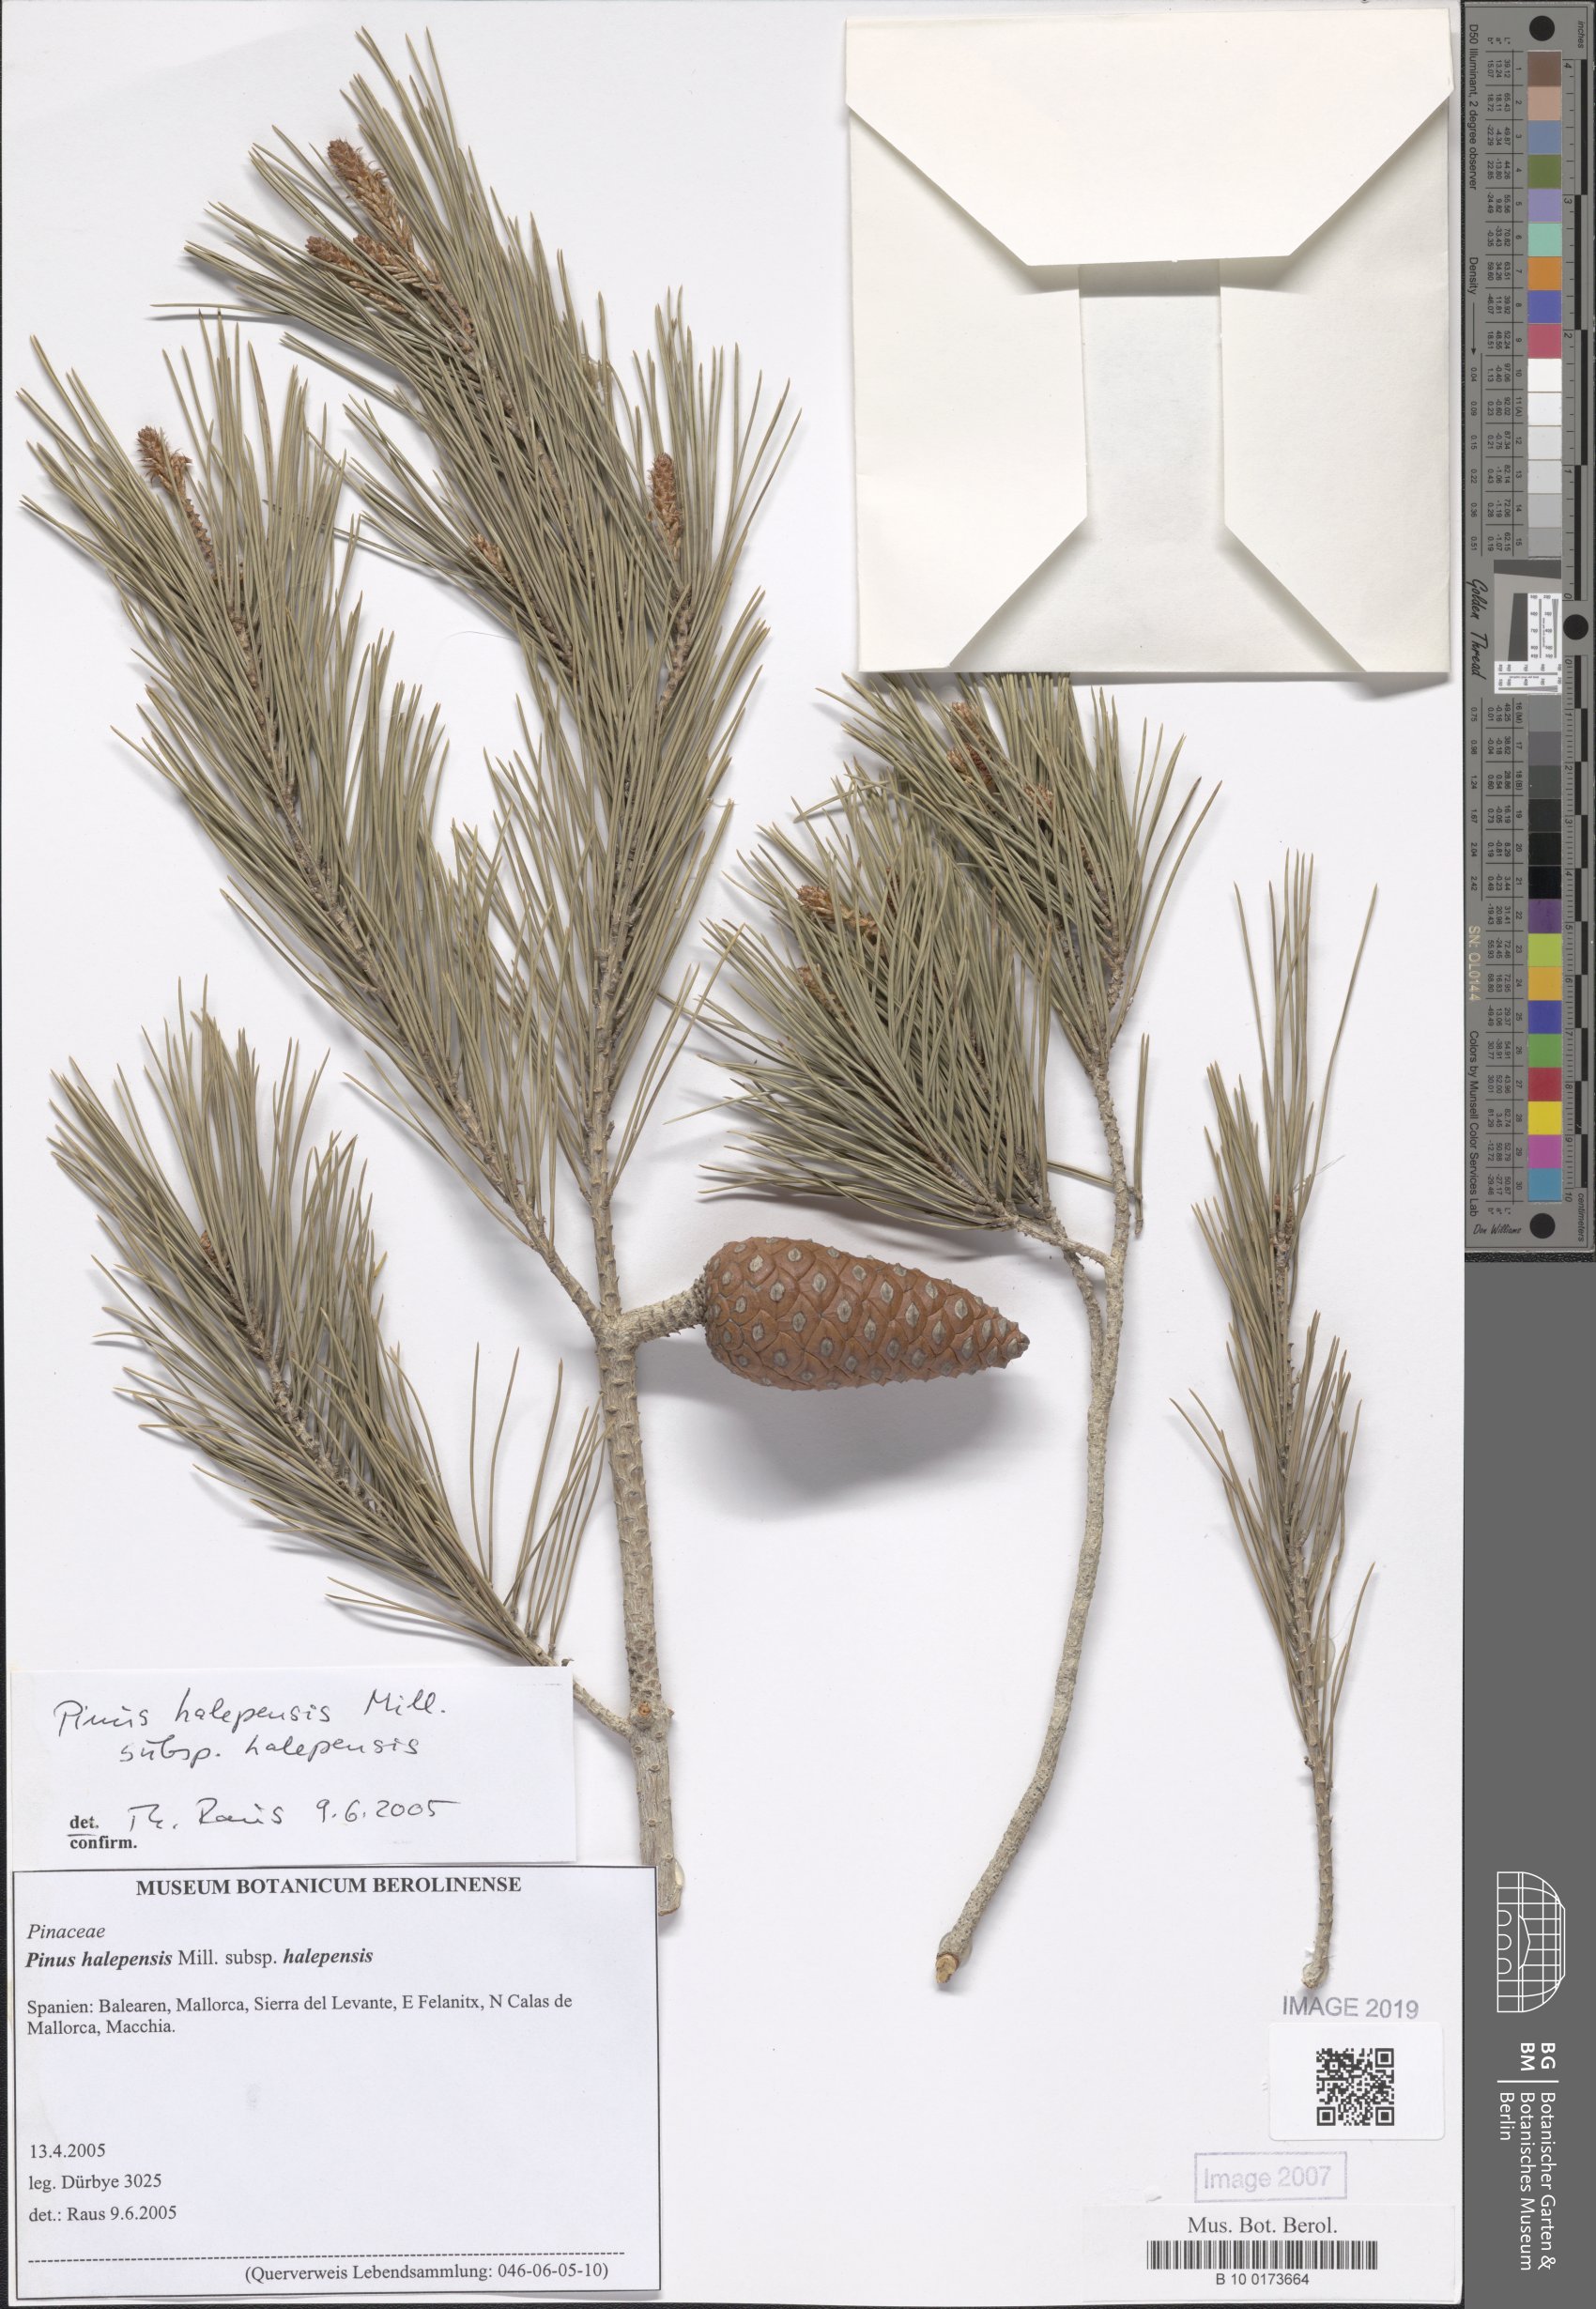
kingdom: Plantae
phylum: Tracheophyta
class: Pinopsida
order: Pinales
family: Pinaceae
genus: Pinus
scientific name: Pinus halepensis
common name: Aleppo pine
